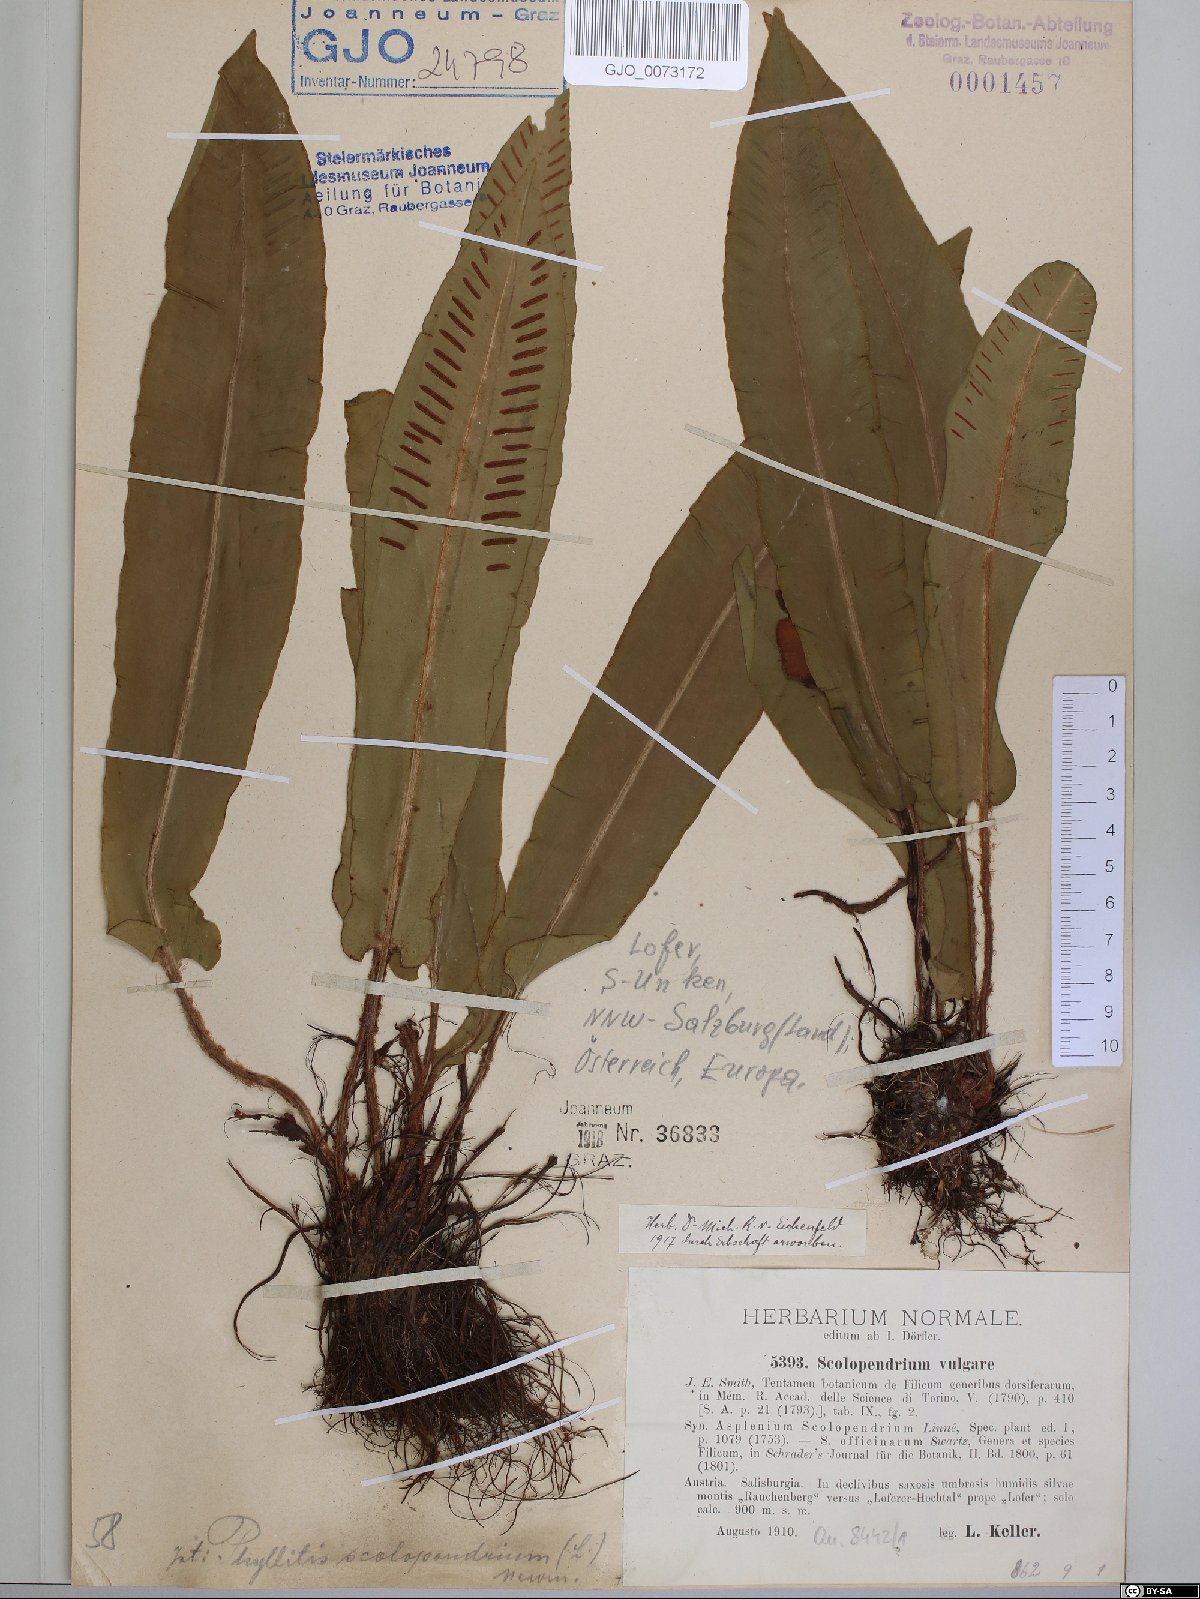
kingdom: Plantae
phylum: Tracheophyta
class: Polypodiopsida
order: Polypodiales
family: Aspleniaceae
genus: Asplenium
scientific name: Asplenium scolopendrium
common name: Hart's-tongue fern
